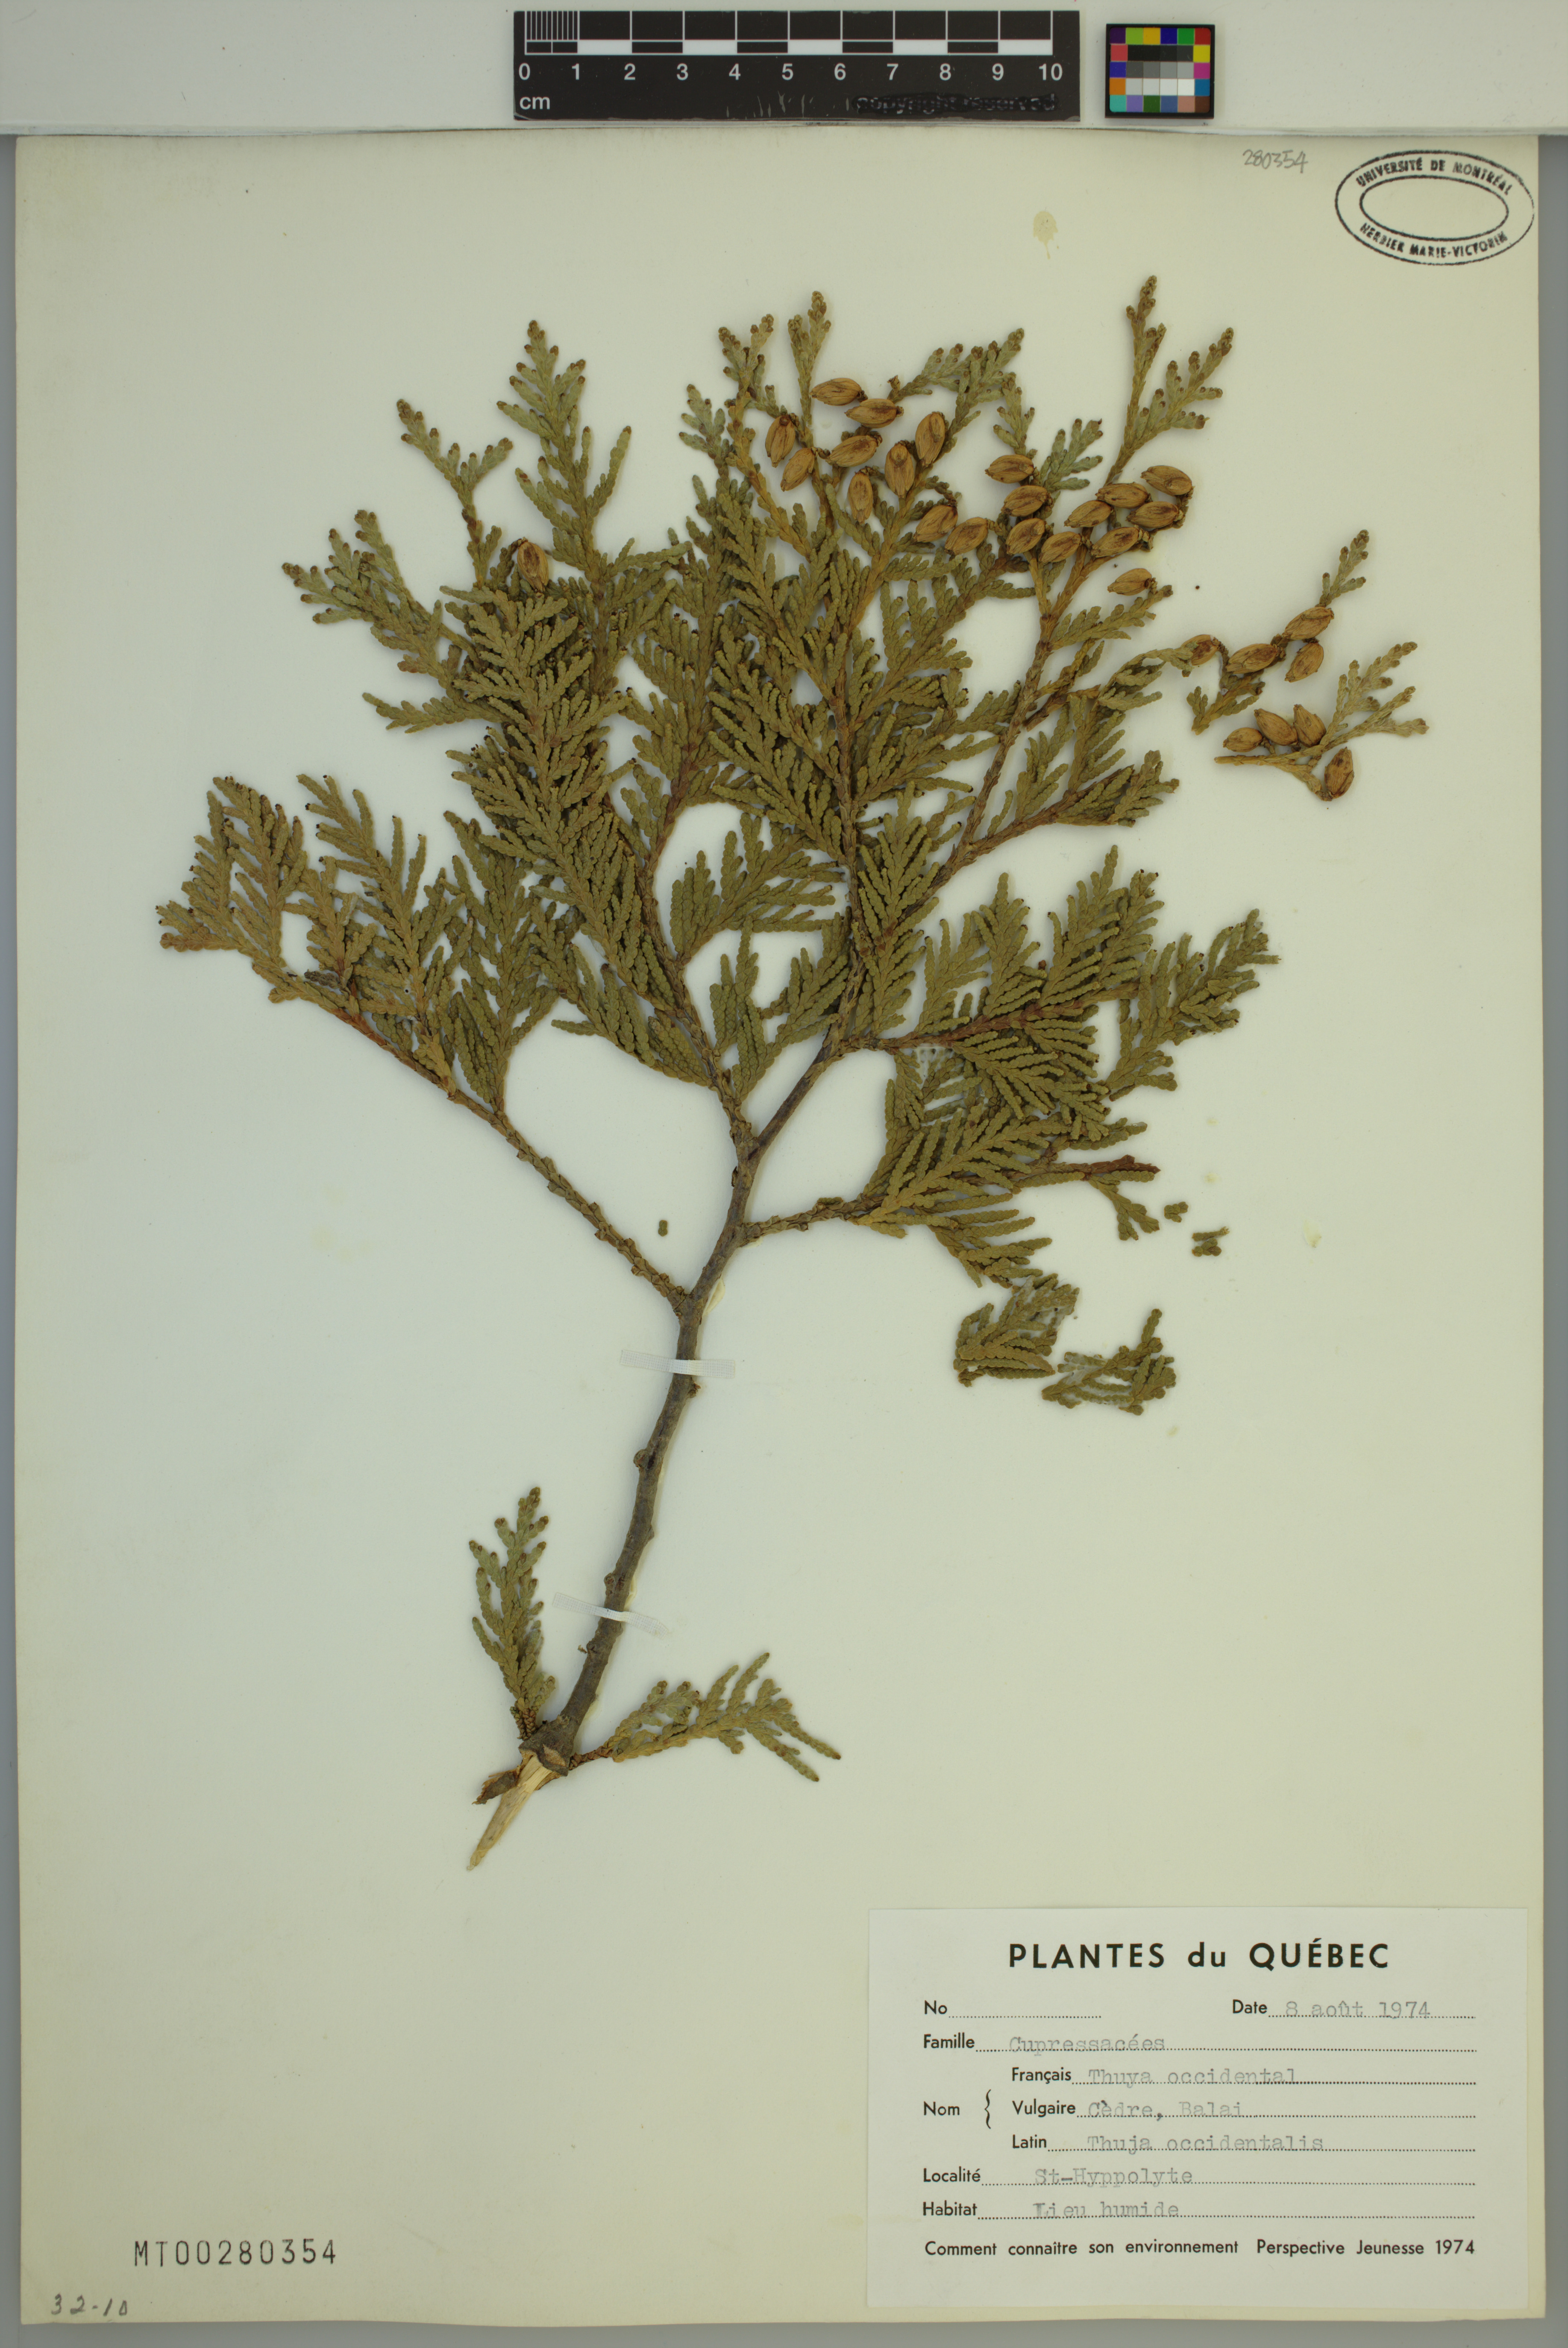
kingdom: Plantae
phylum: Tracheophyta
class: Pinopsida
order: Pinales
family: Cupressaceae
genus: Thuja
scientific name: Thuja occidentalis
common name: Northern white-cedar
